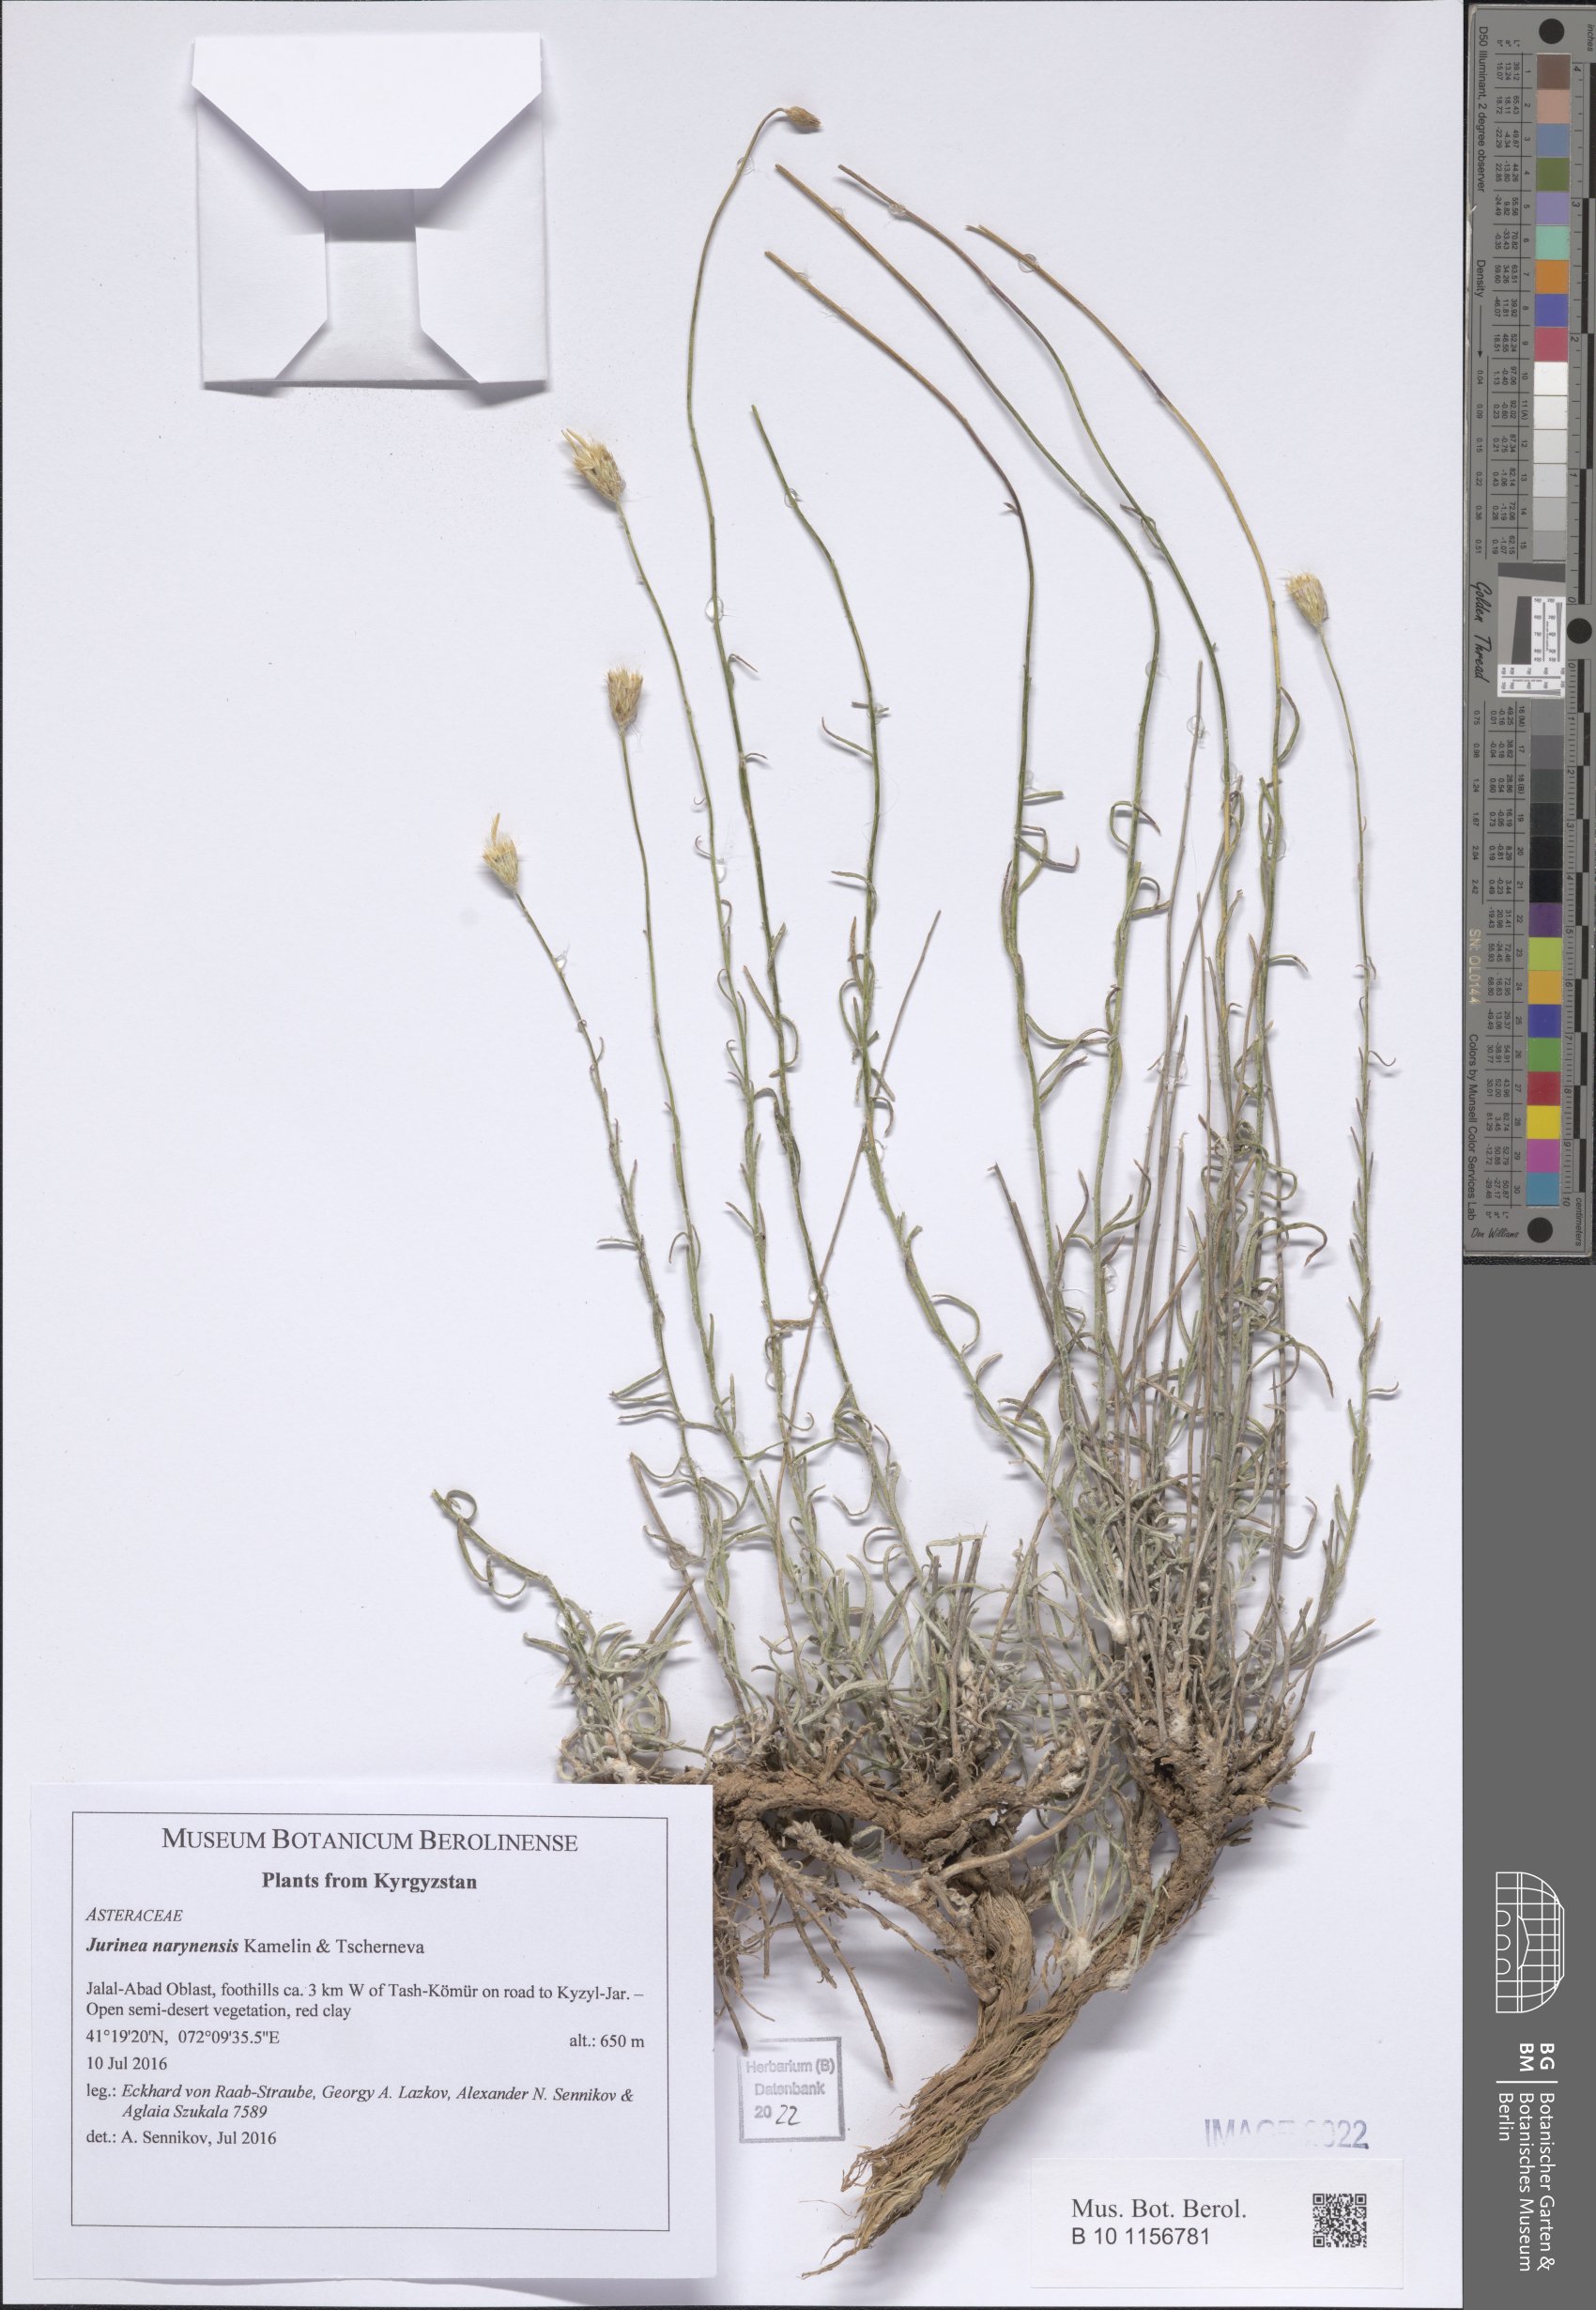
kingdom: Plantae
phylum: Tracheophyta
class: Magnoliopsida
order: Asterales
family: Asteraceae
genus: Jurinea
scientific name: Jurinea narynensis
